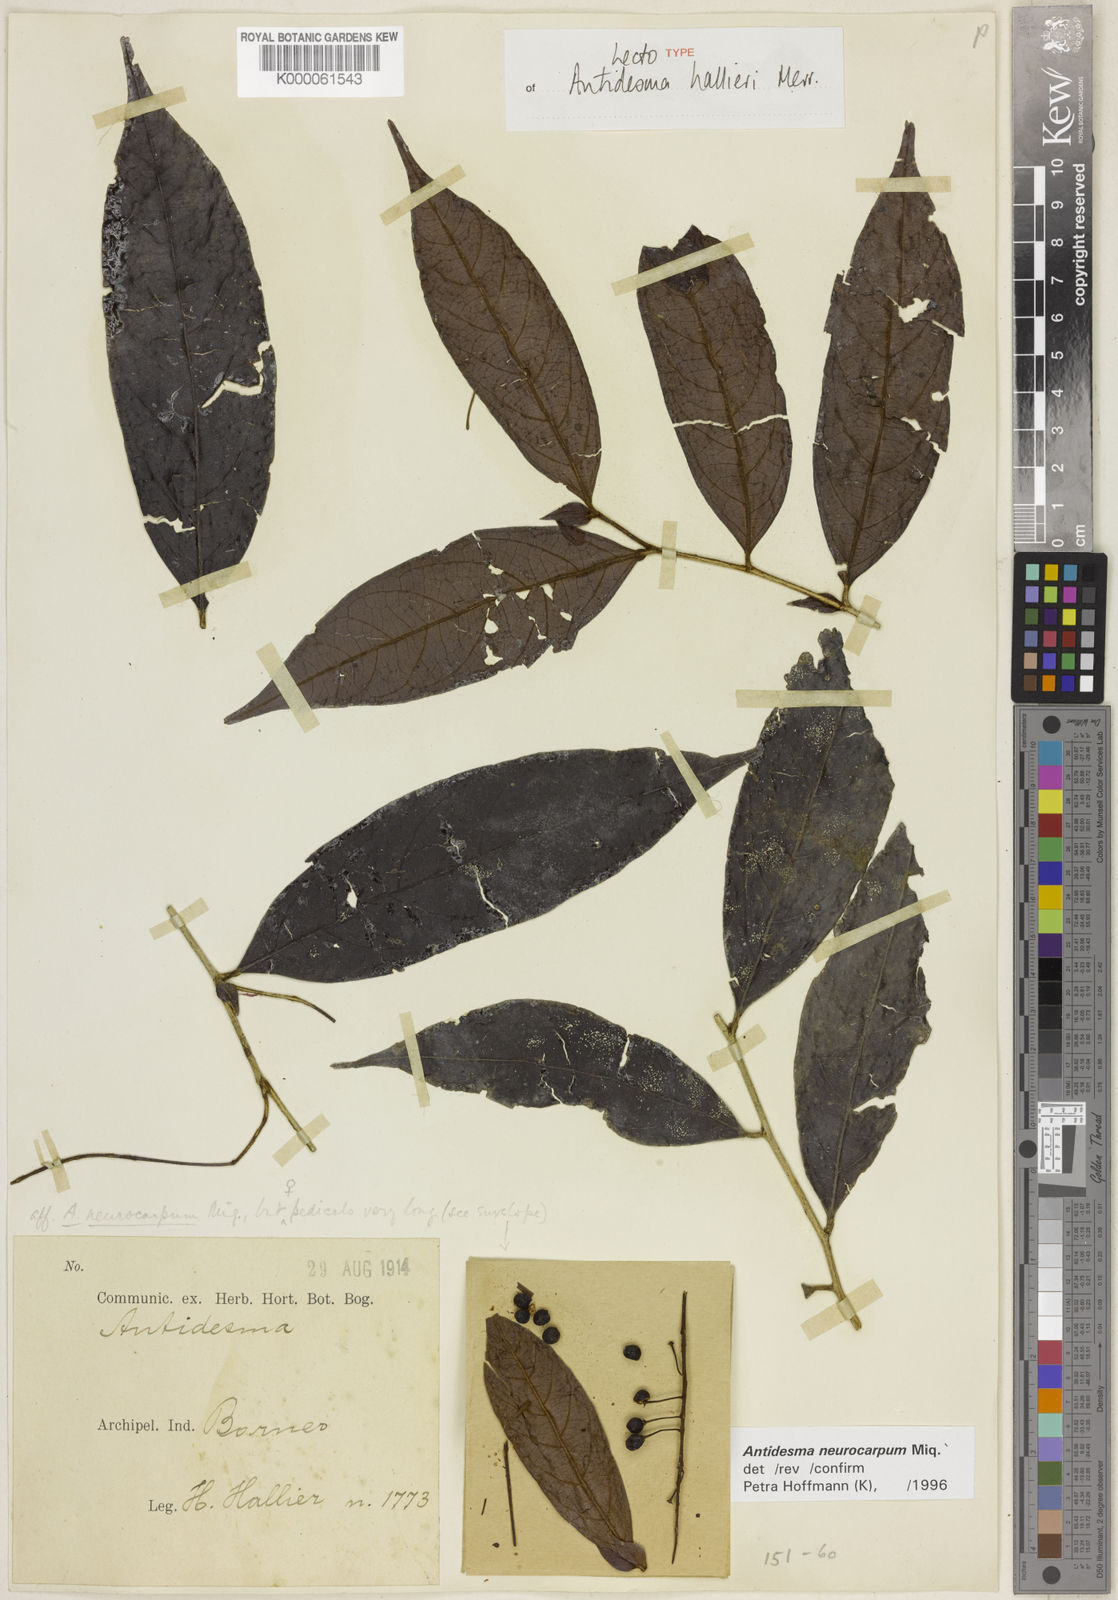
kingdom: Plantae
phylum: Tracheophyta
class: Magnoliopsida
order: Malpighiales
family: Phyllanthaceae
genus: Antidesma
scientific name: Antidesma neurocarpum
